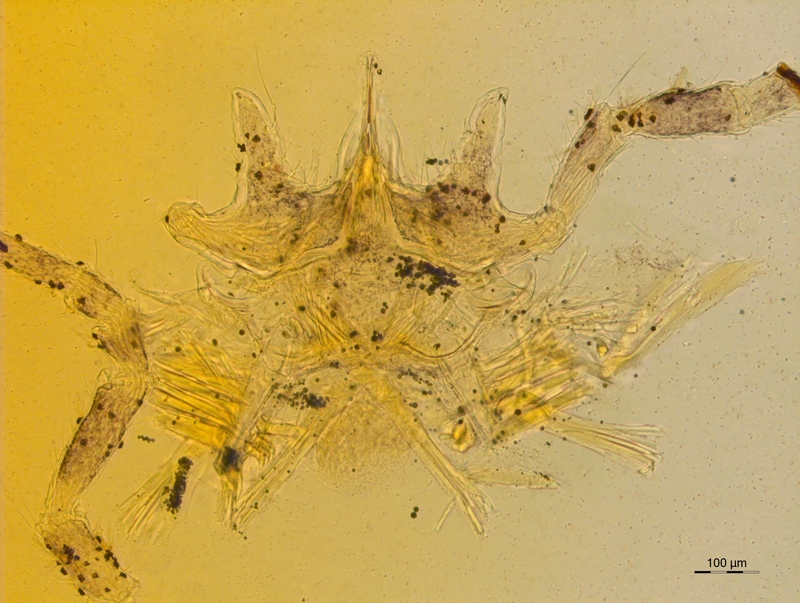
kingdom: Animalia
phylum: Arthropoda
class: Diplopoda
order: Chordeumatida
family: Attemsiidae
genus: Polyphematia
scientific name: Polyphematia moniliformis
